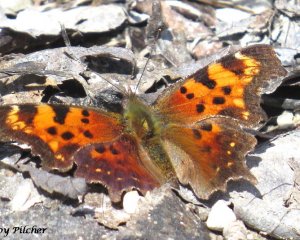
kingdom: Animalia
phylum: Arthropoda
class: Insecta
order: Lepidoptera
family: Nymphalidae
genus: Polygonia
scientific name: Polygonia faunus
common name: Green Comma
